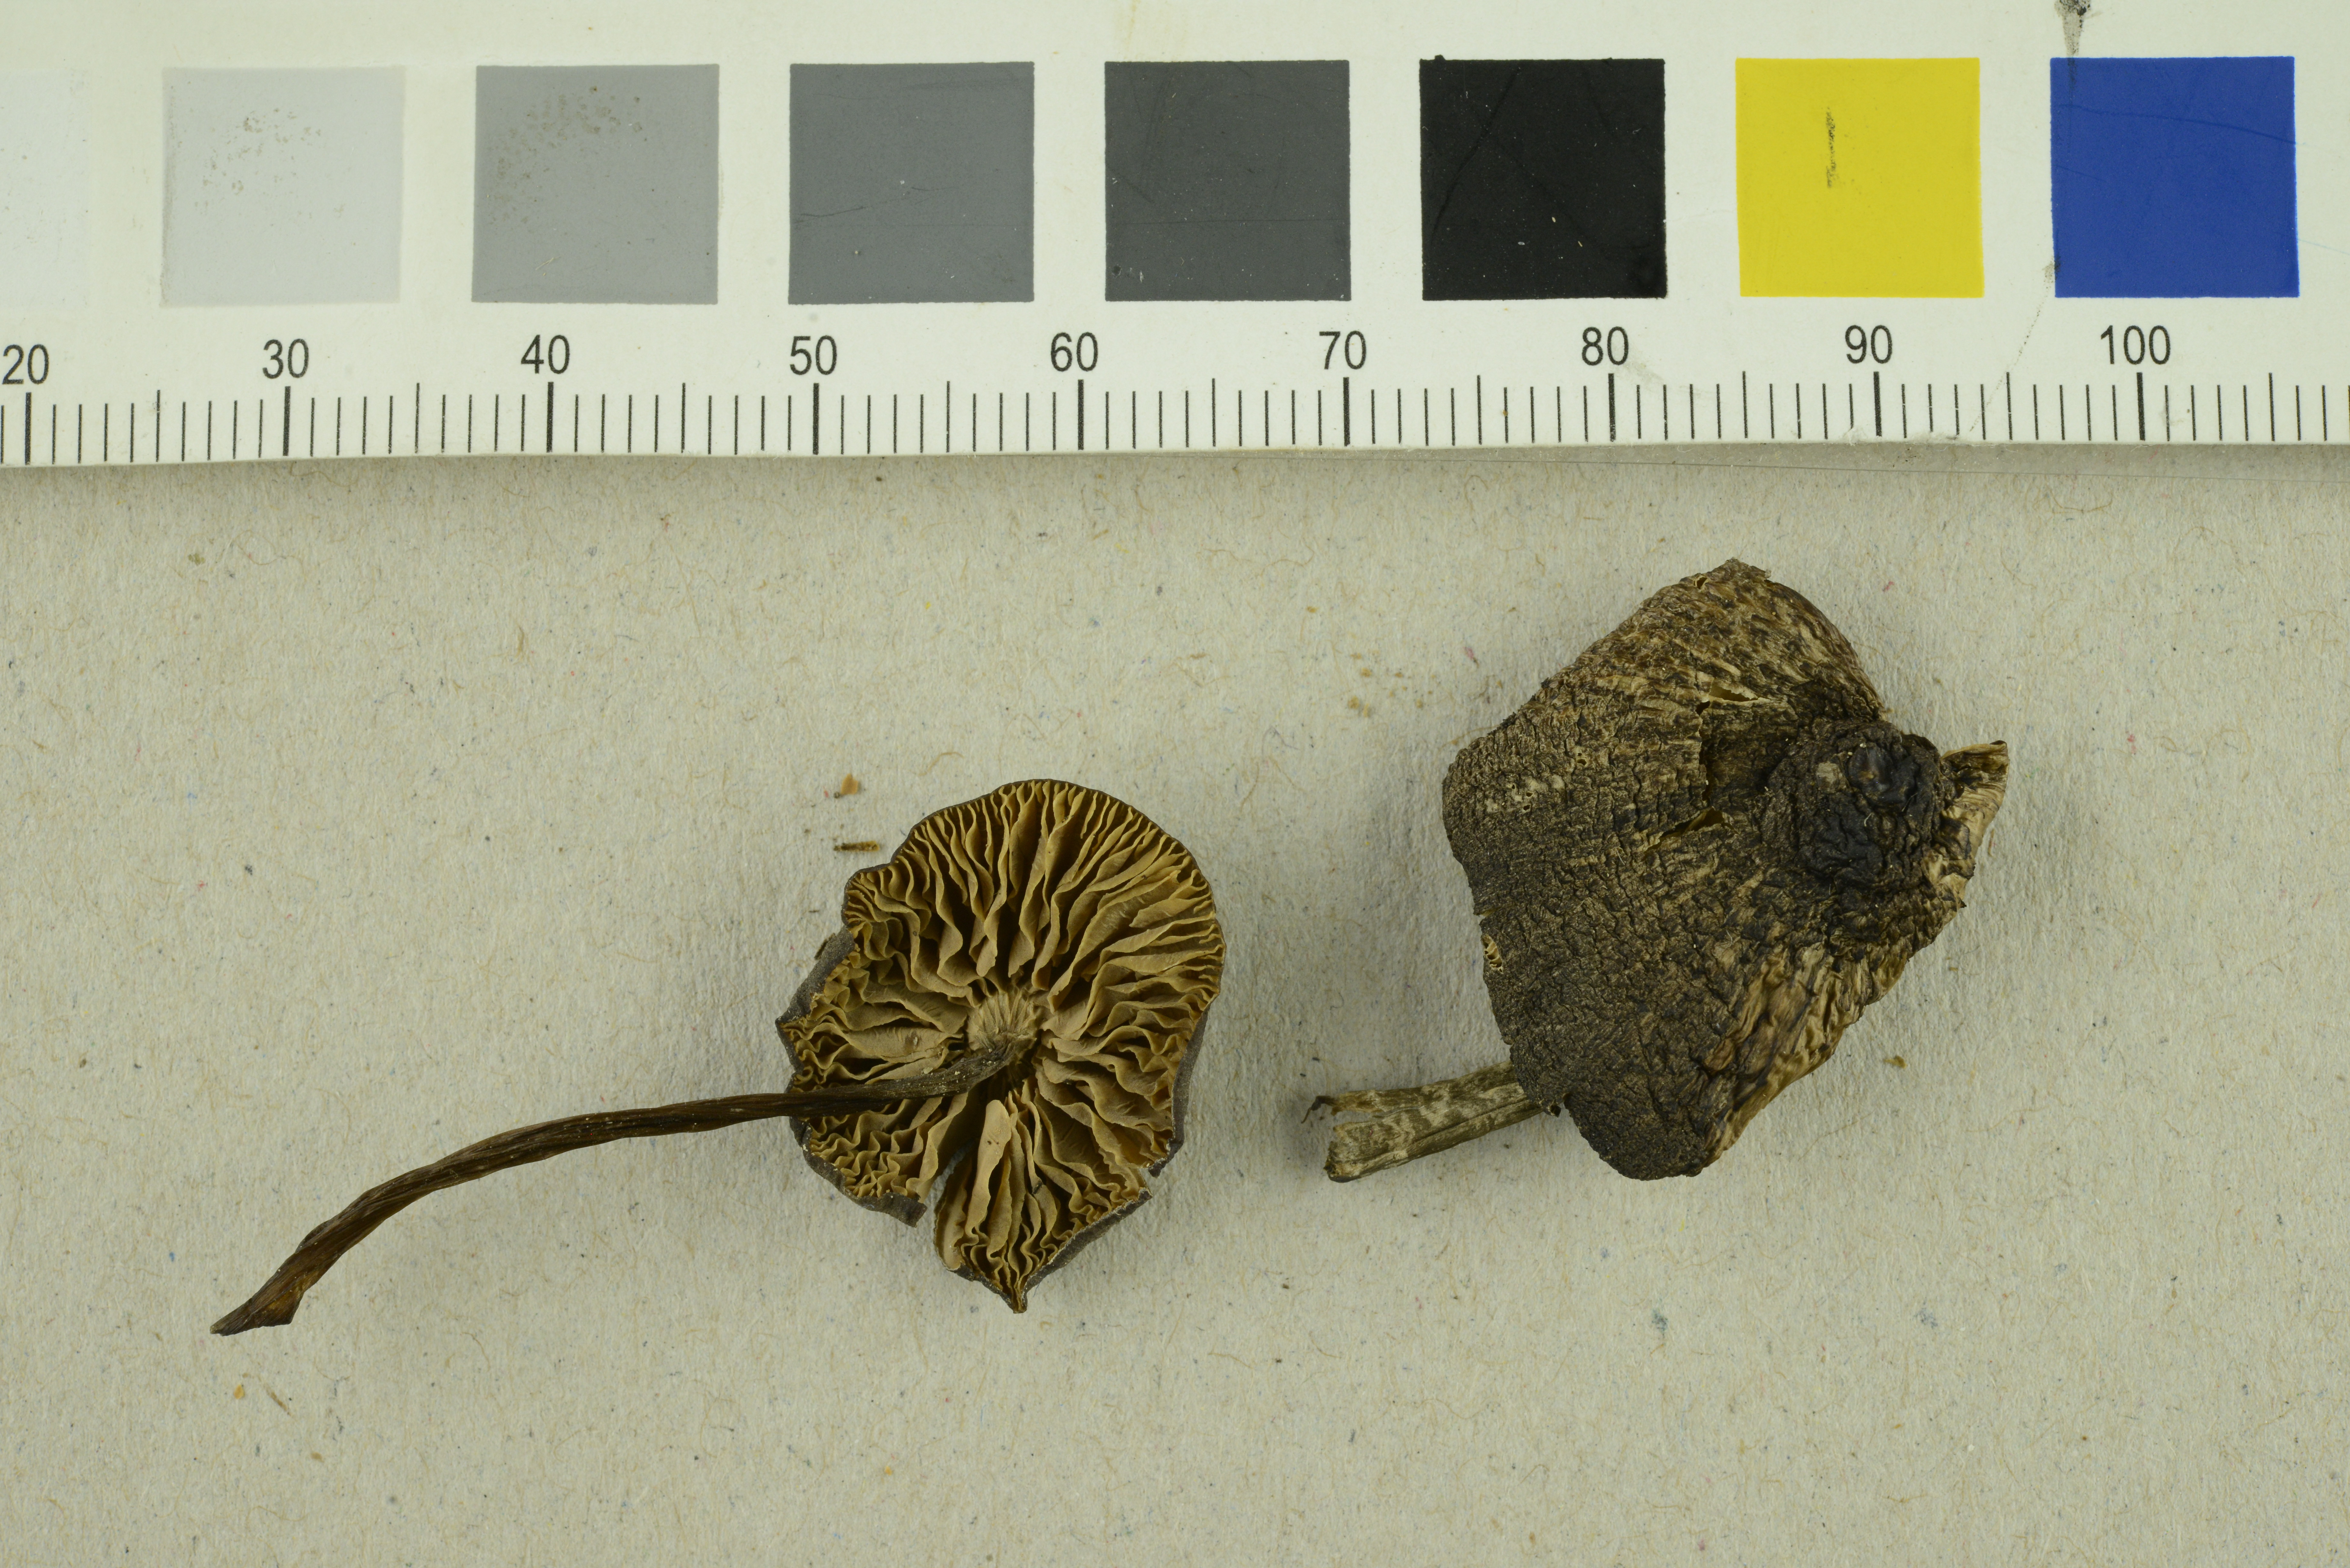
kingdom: Fungi
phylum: Basidiomycota
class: Agaricomycetes
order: Agaricales
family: Entolomataceae
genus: Entoloma
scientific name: Entoloma anatinum
